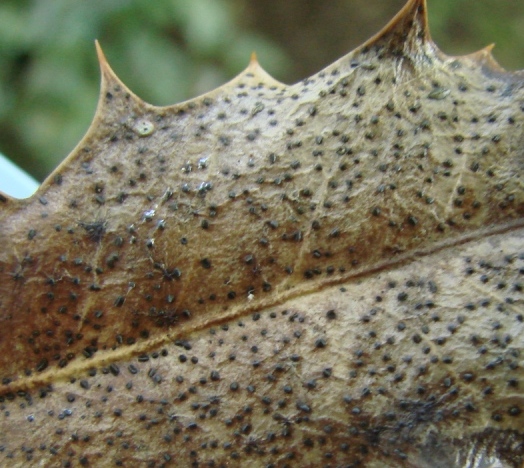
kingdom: Fungi
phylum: Ascomycota
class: Leotiomycetes
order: Helotiales
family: Cenangiaceae
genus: Trochila
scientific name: Trochila ilicina
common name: kristtorn-lågskive
